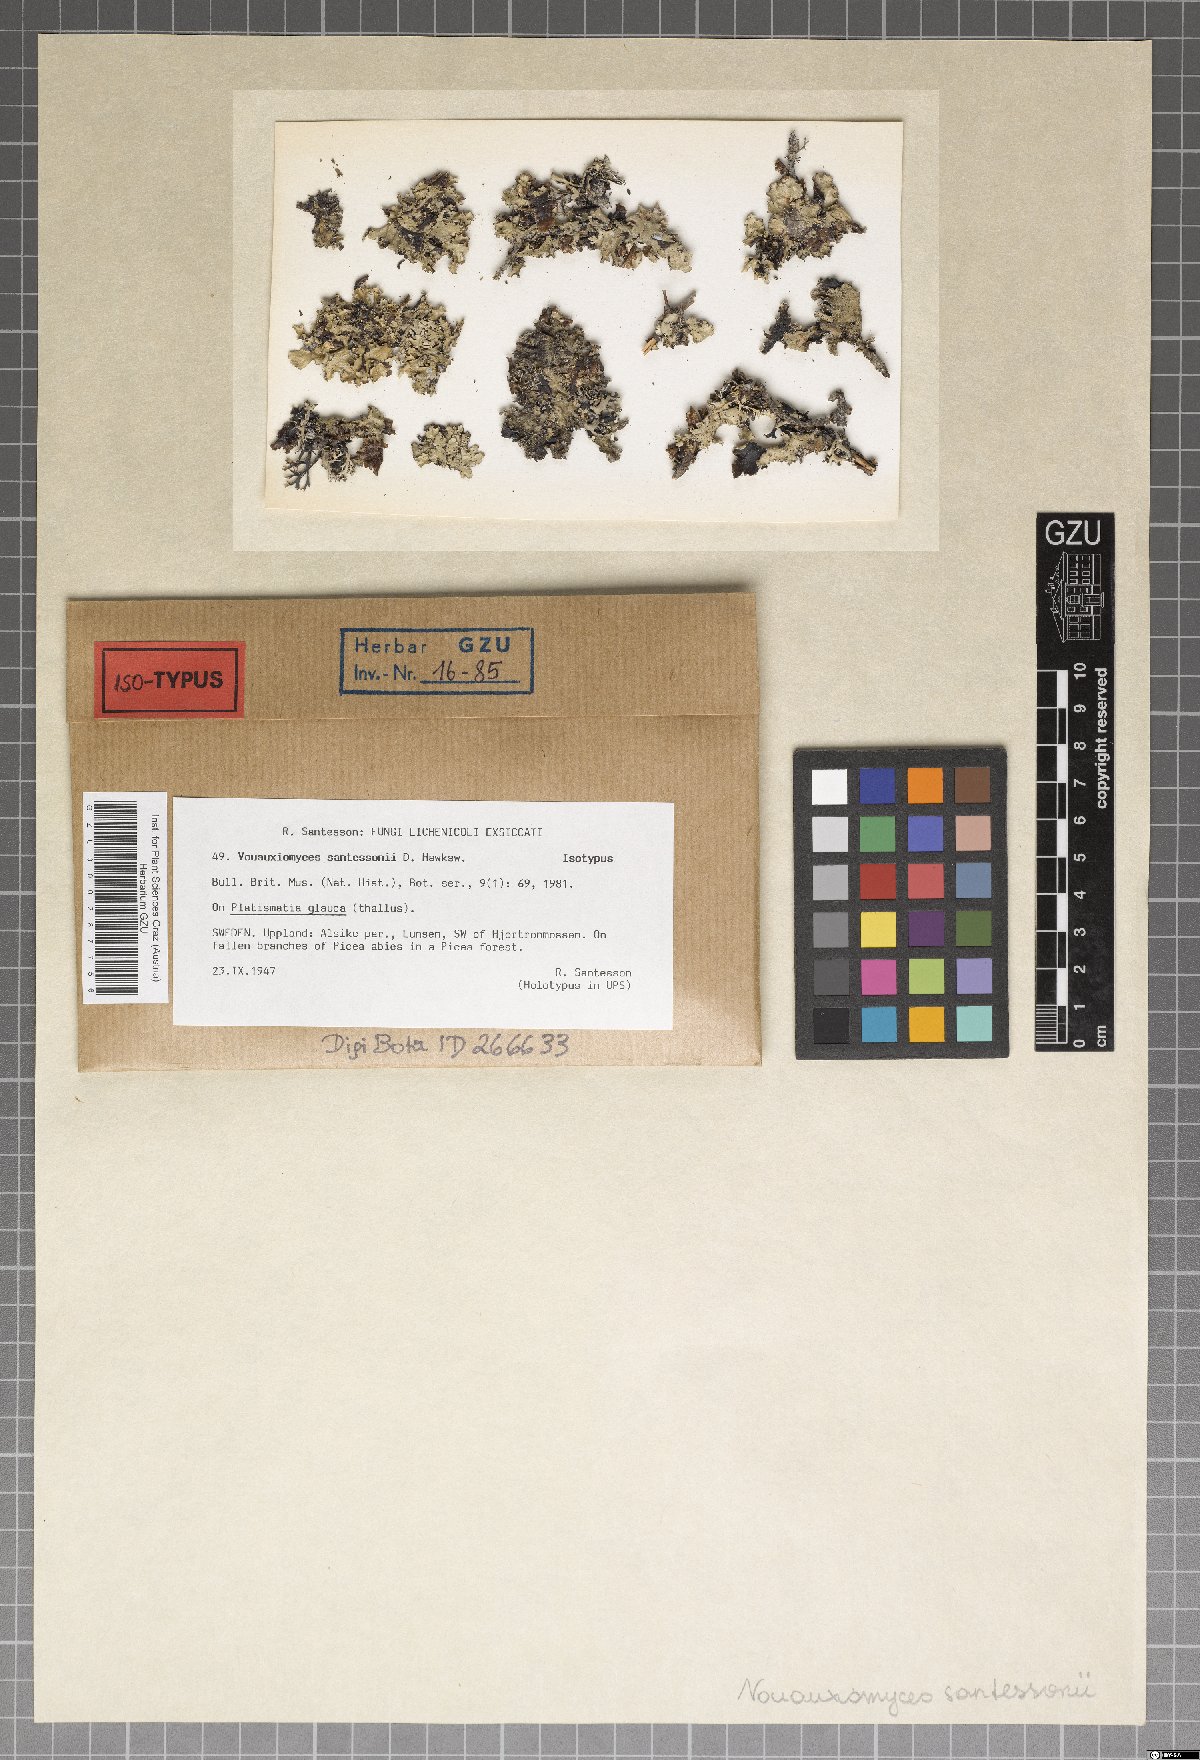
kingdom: Fungi
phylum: Ascomycota
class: Dothideomycetes
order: Abrothallales
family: Abrothallaceae
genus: Abrothallus
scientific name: Abrothallus santessonii
